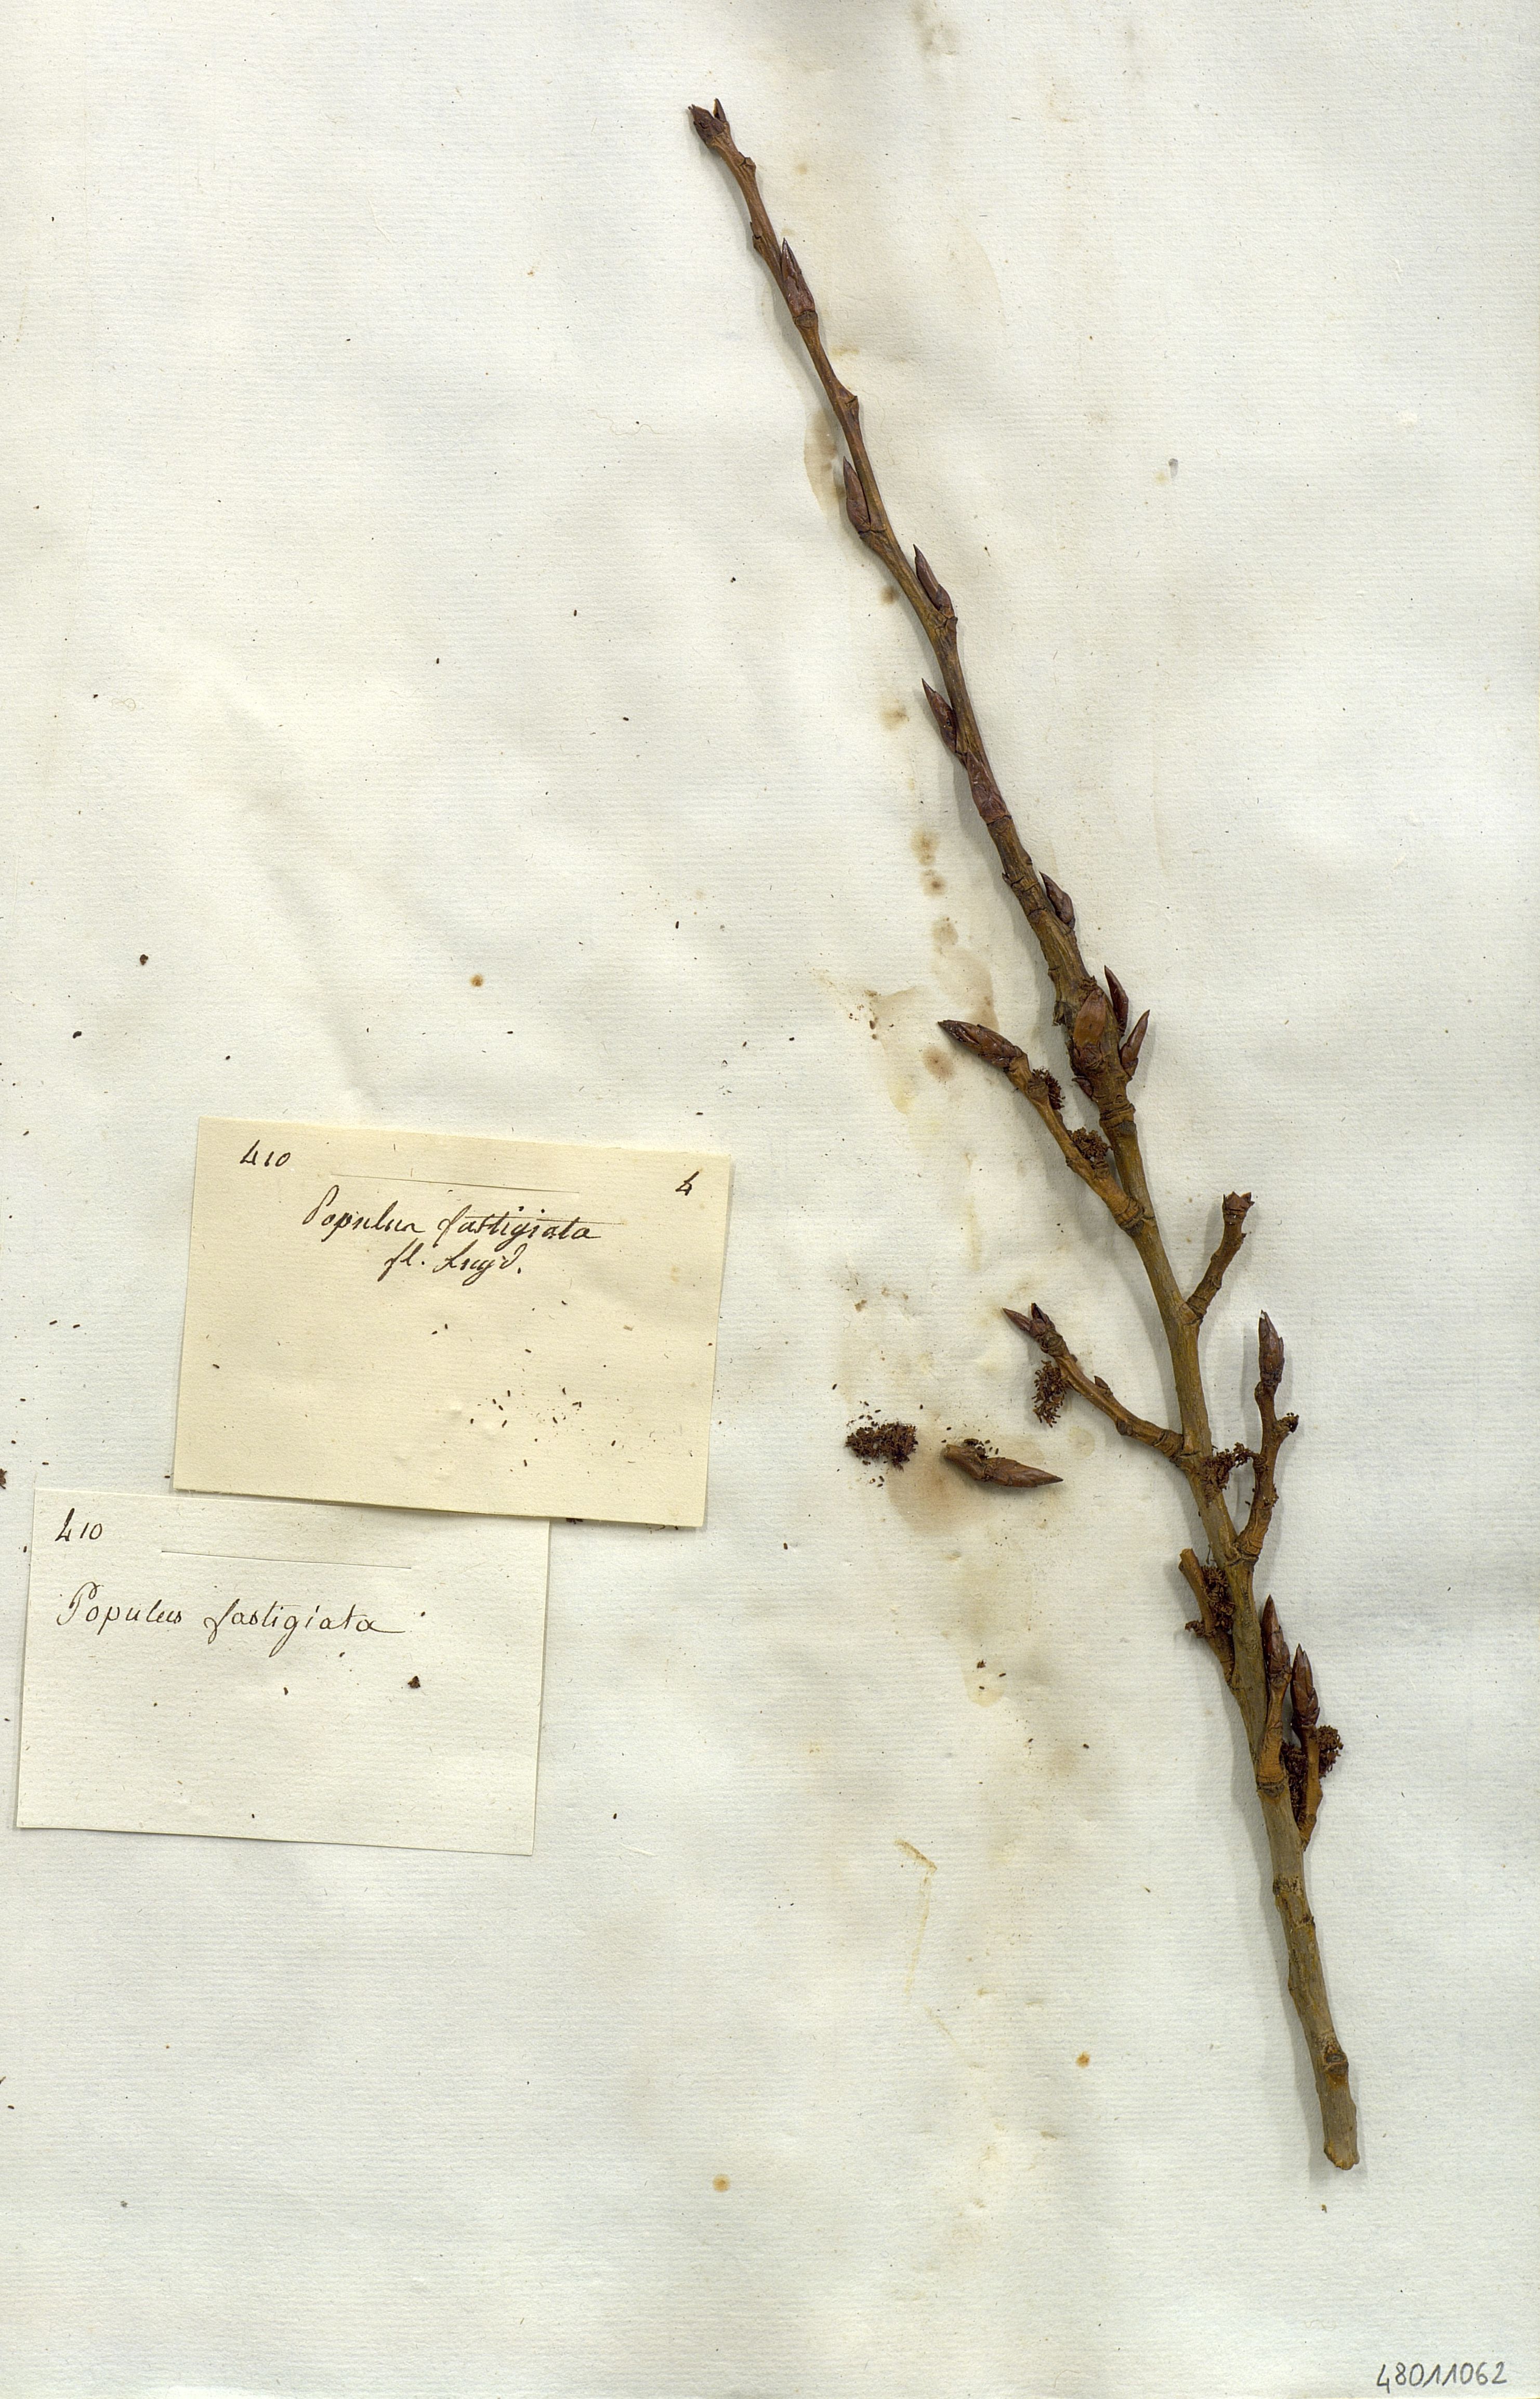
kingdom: Plantae
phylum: Tracheophyta
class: Magnoliopsida
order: Malpighiales
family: Salicaceae
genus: Populus
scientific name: Populus nigra
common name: Black poplar
